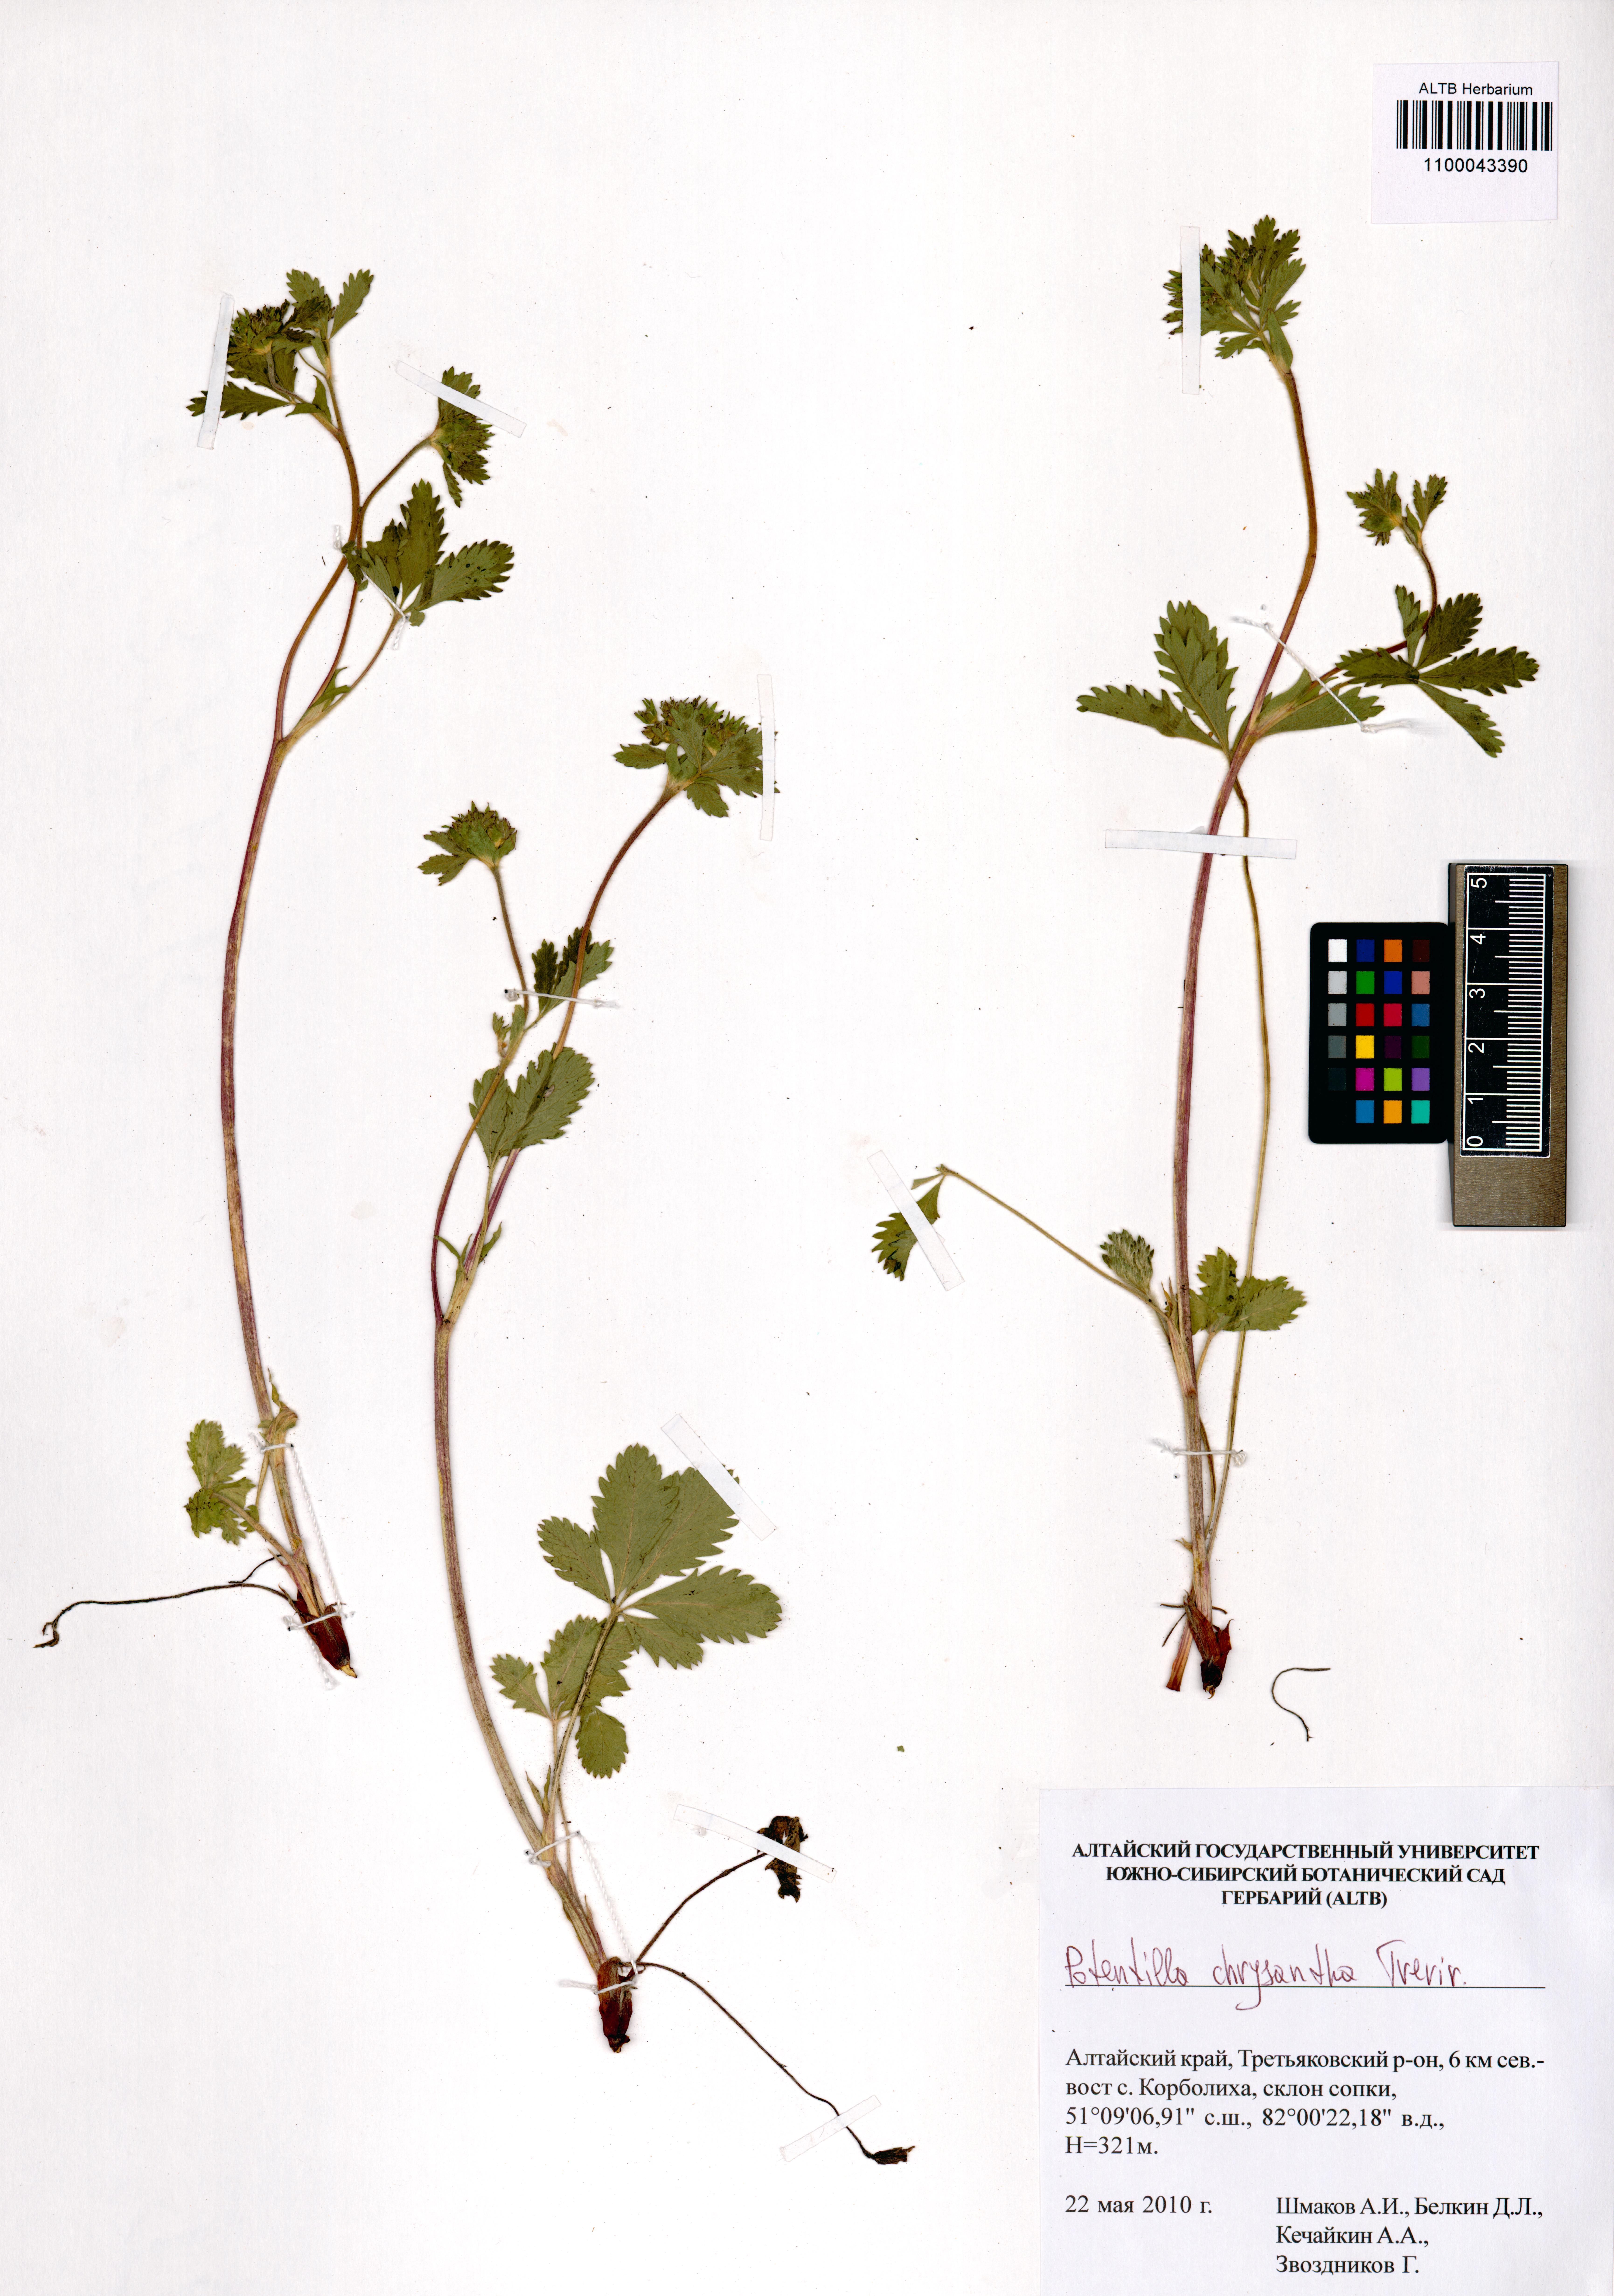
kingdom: Plantae
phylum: Tracheophyta
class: Magnoliopsida
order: Rosales
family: Rosaceae
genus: Potentilla
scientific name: Potentilla chrysantha
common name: Thuringian cinquefoil
